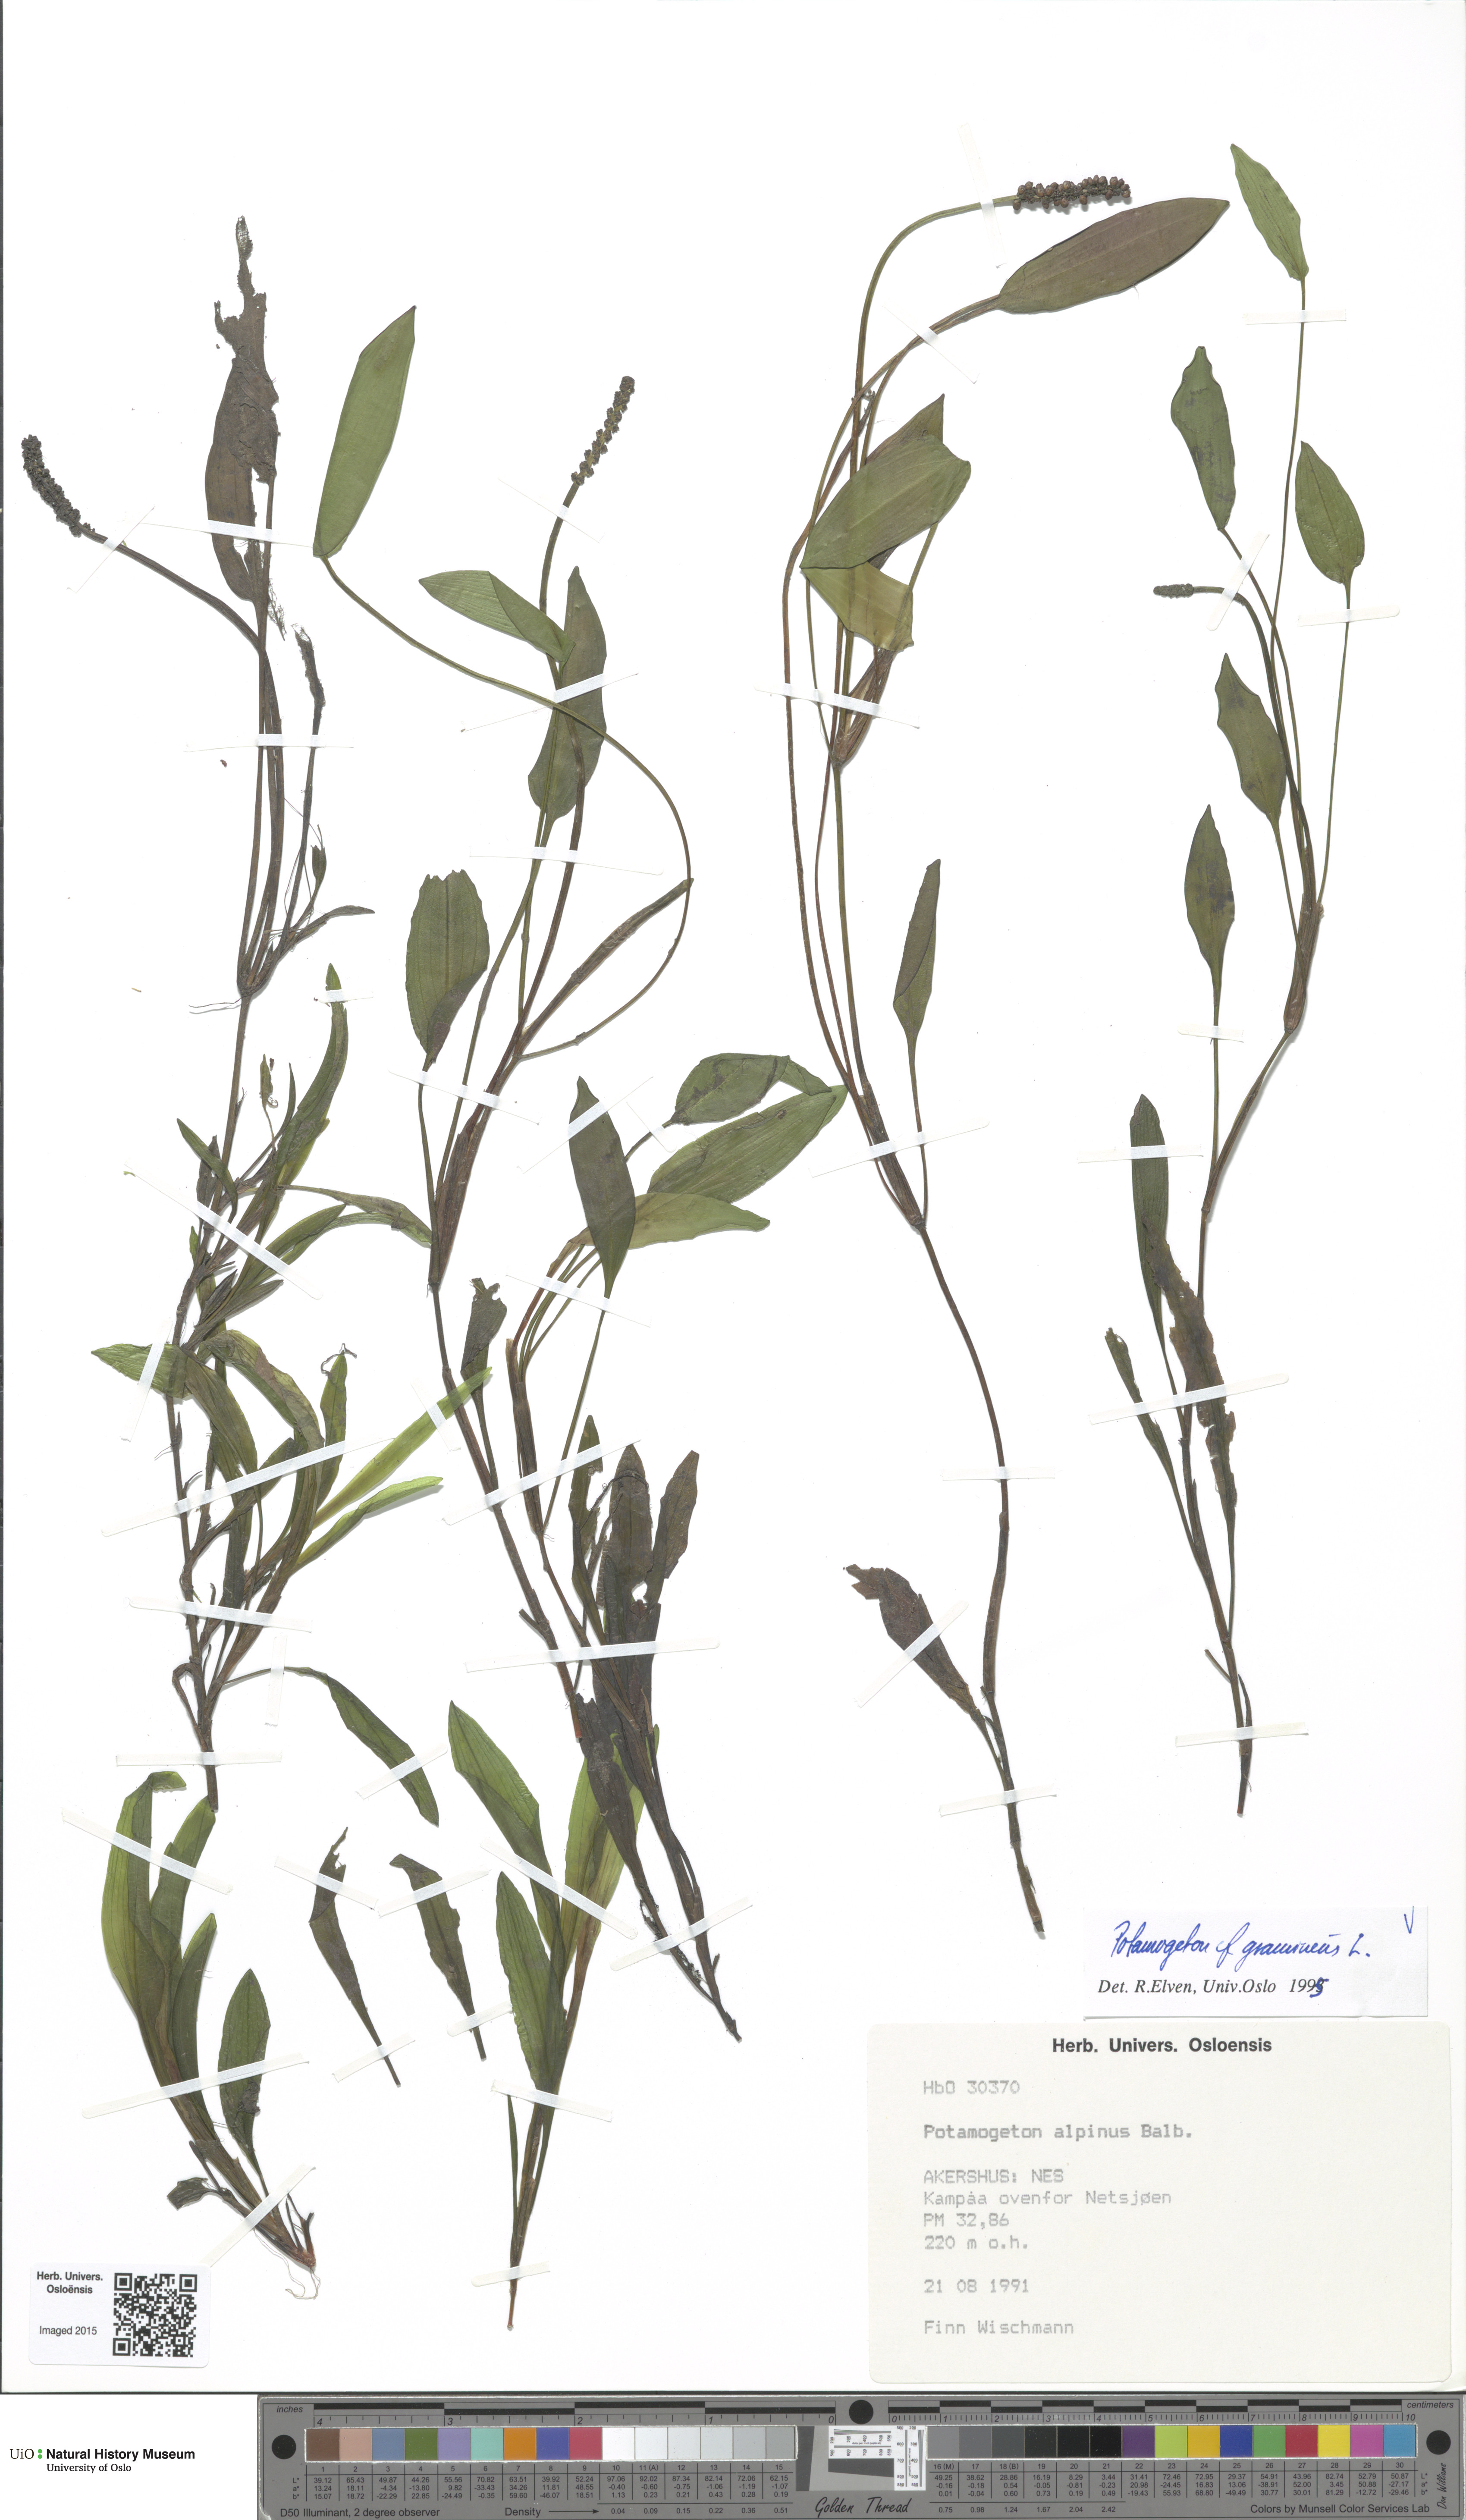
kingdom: Plantae
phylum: Tracheophyta
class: Liliopsida
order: Alismatales
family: Potamogetonaceae
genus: Potamogeton
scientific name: Potamogeton gramineus
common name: Various-leaved pondweed
